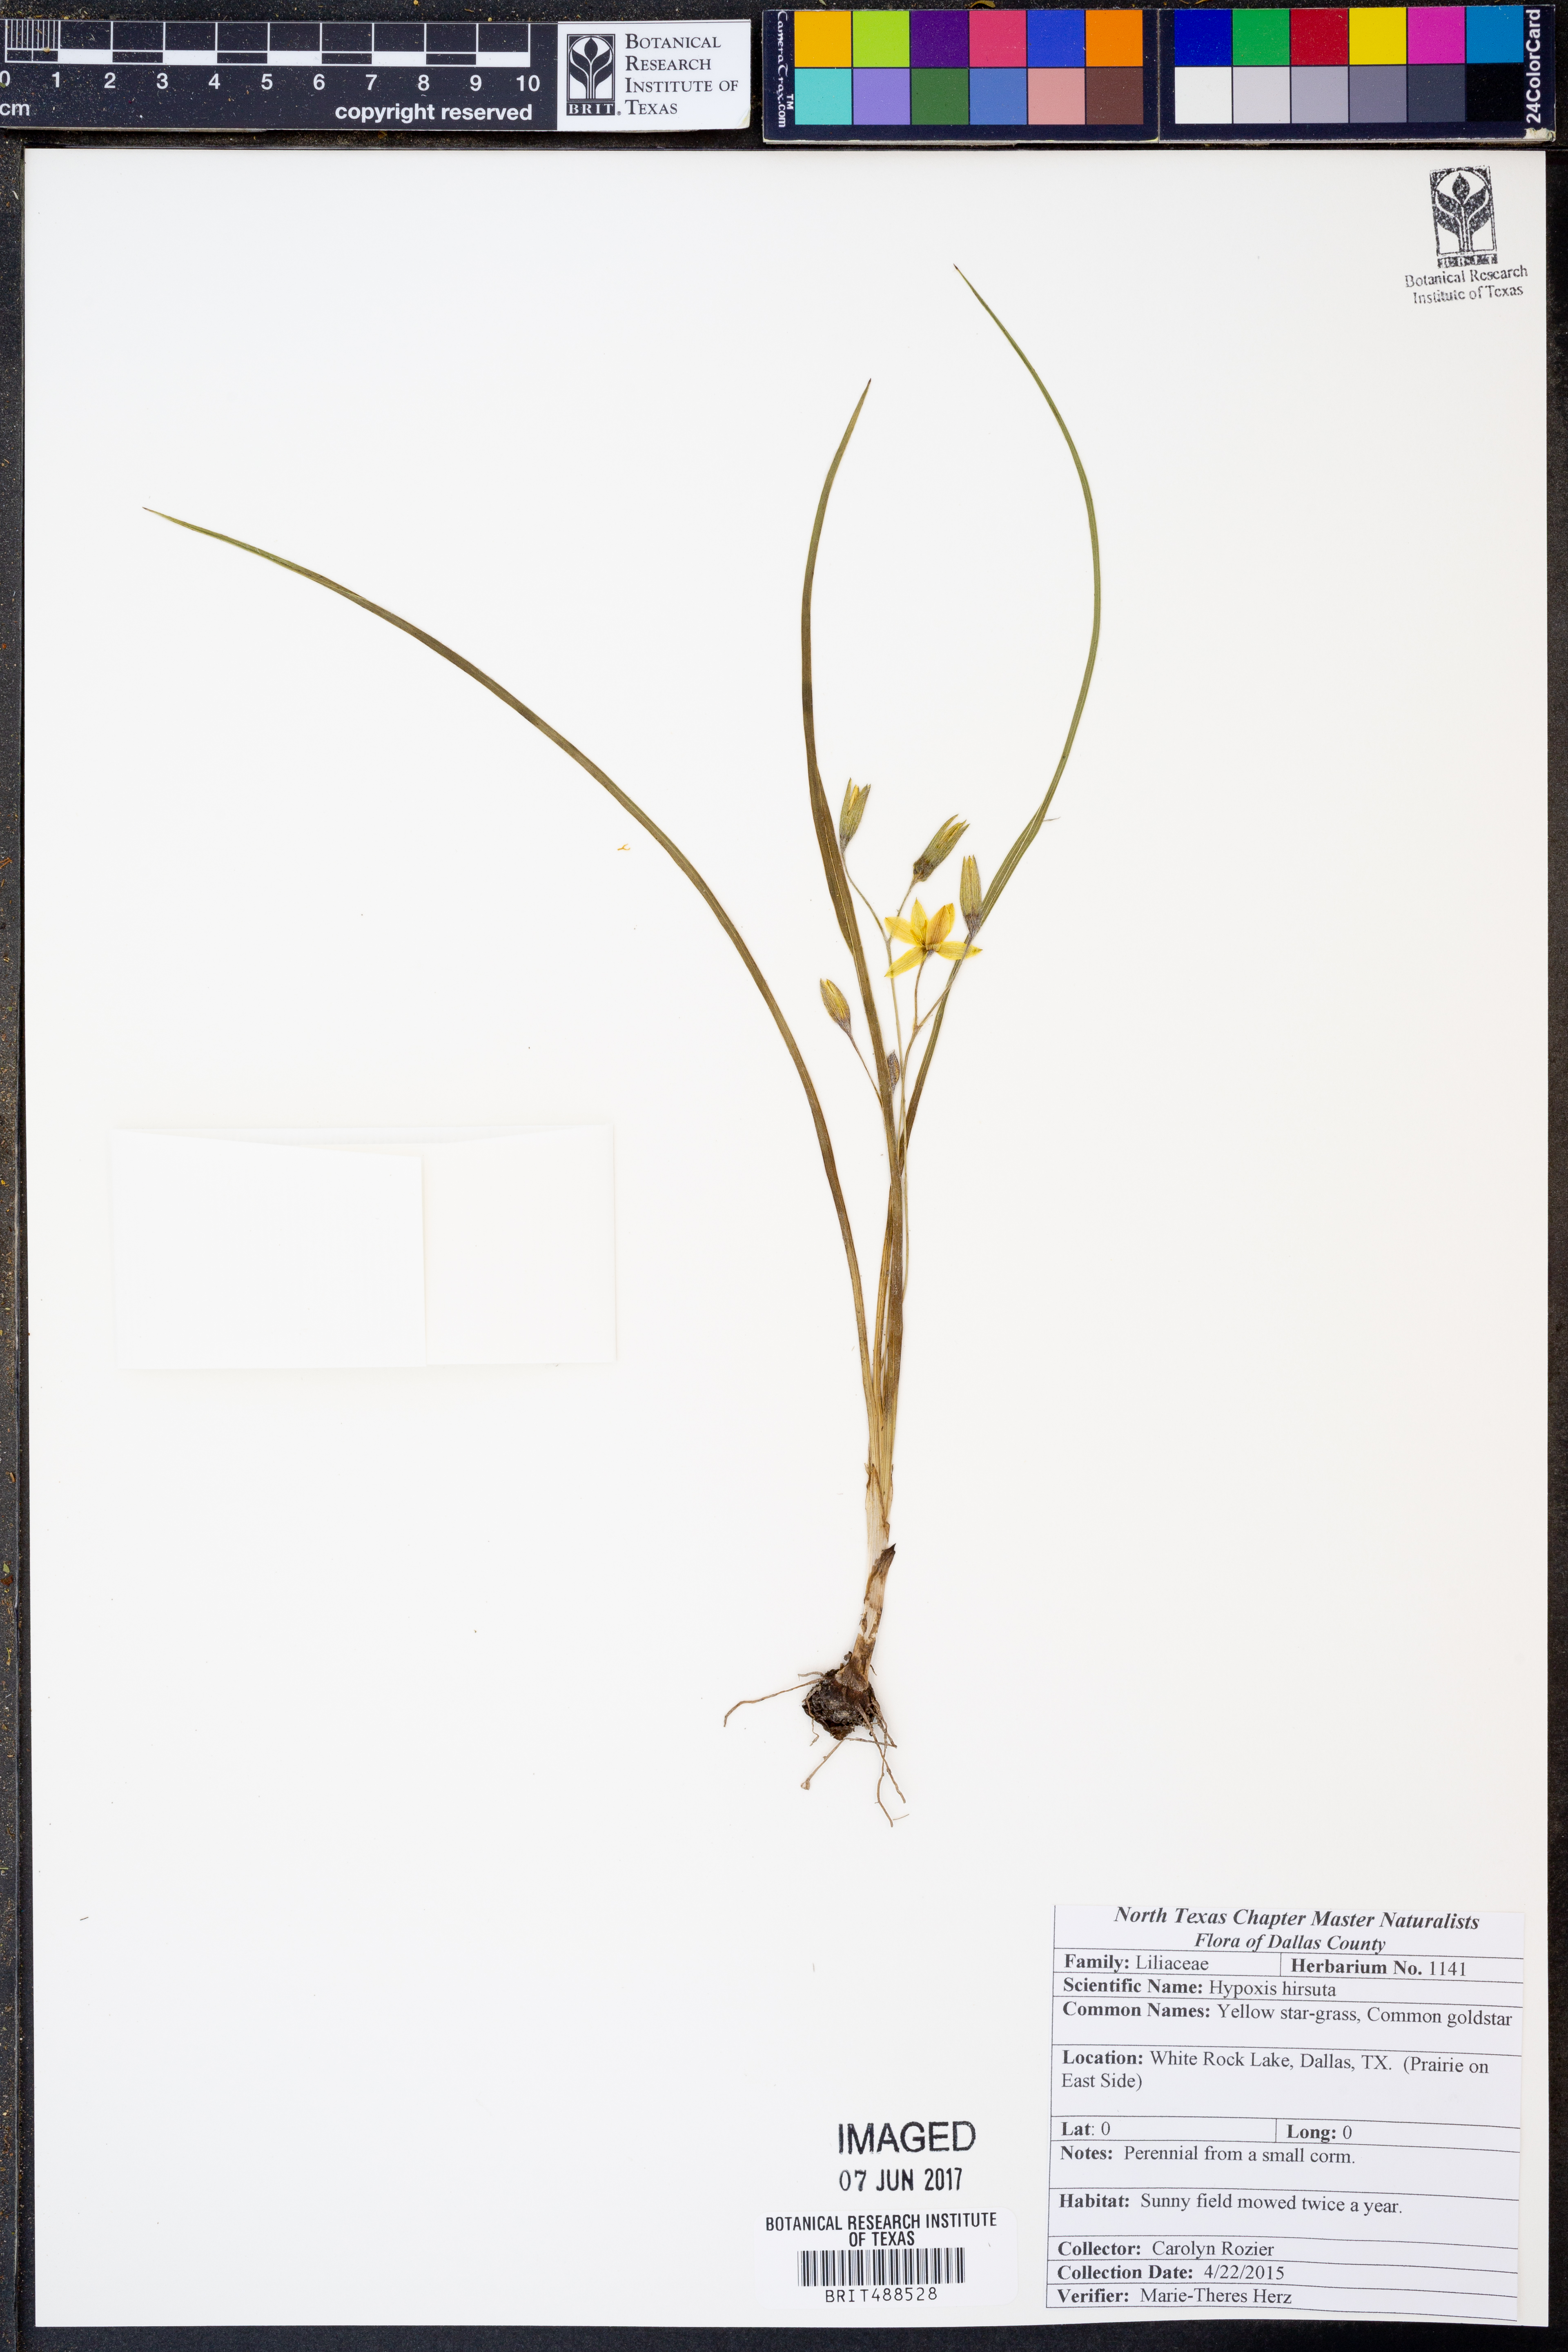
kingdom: Plantae
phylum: Tracheophyta
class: Liliopsida
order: Asparagales
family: Hypoxidaceae
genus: Hypoxis
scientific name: Hypoxis hirsuta
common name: Common goldstar
